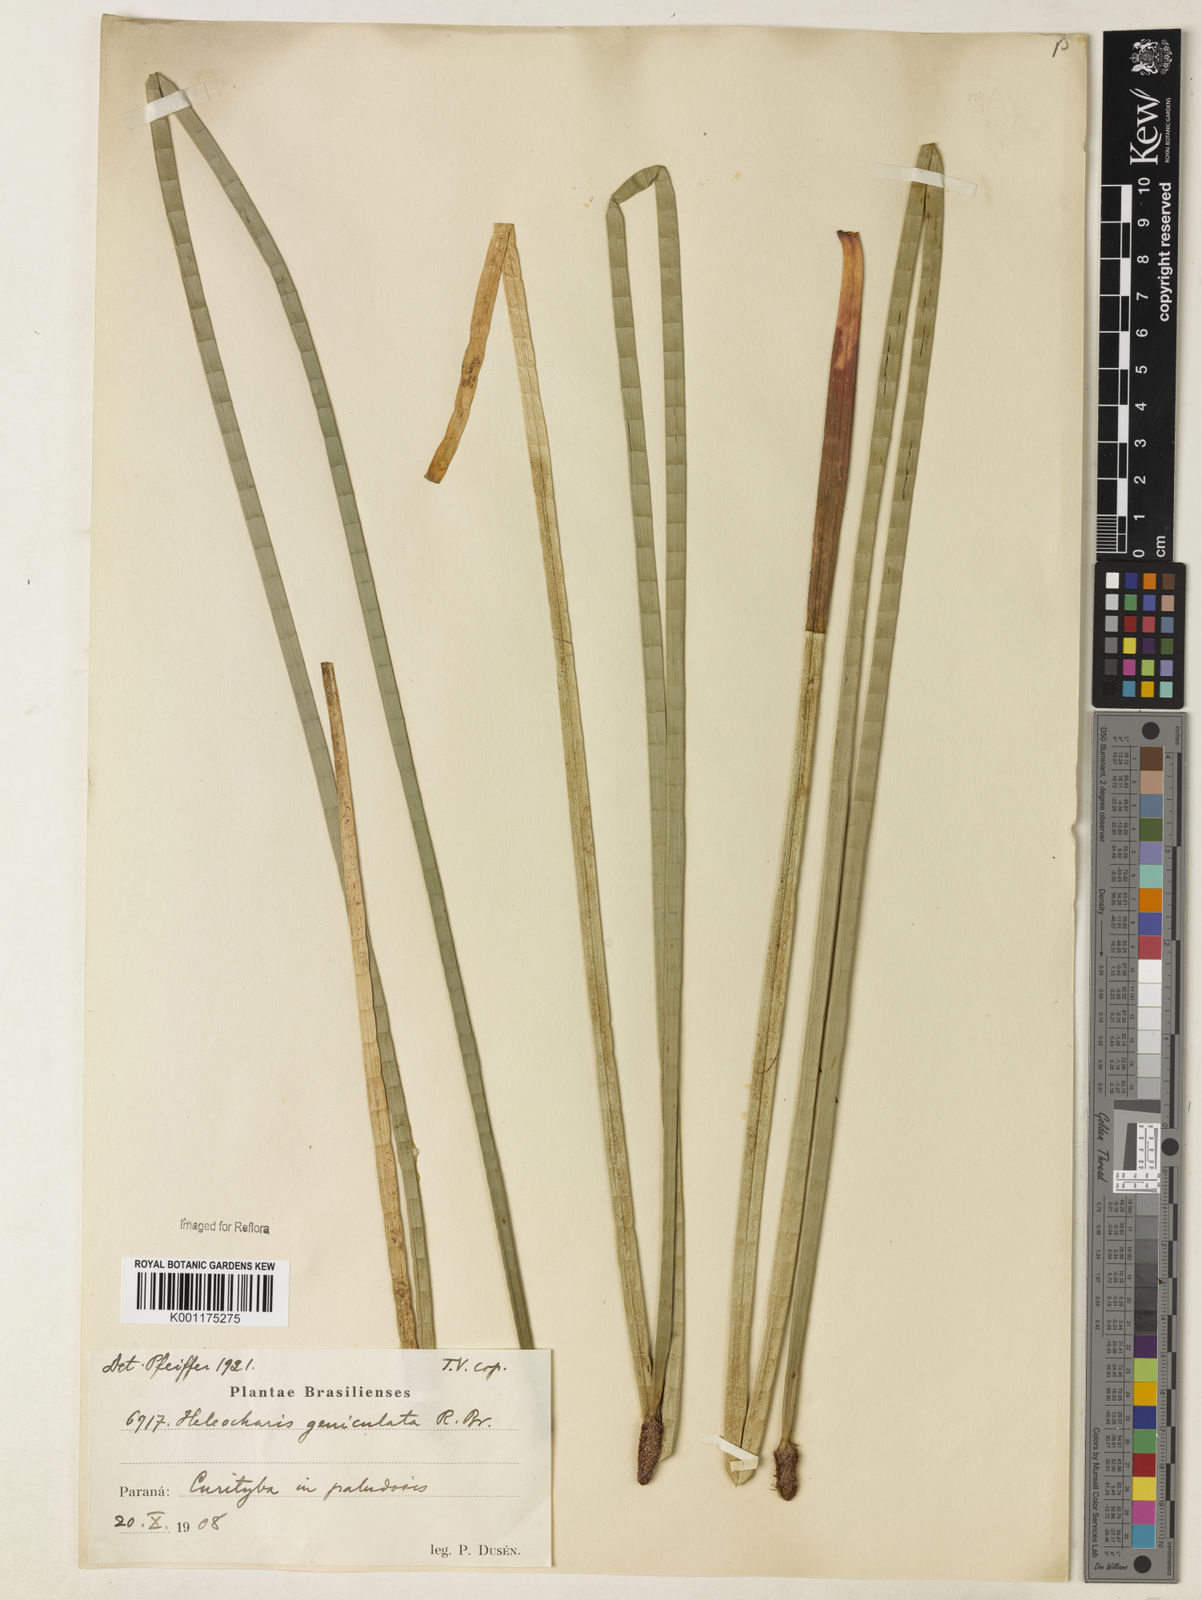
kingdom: Plantae
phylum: Tracheophyta
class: Liliopsida
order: Poales
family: Cyperaceae
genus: Eleocharis
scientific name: Eleocharis geniculata
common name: Canada spikesedge
